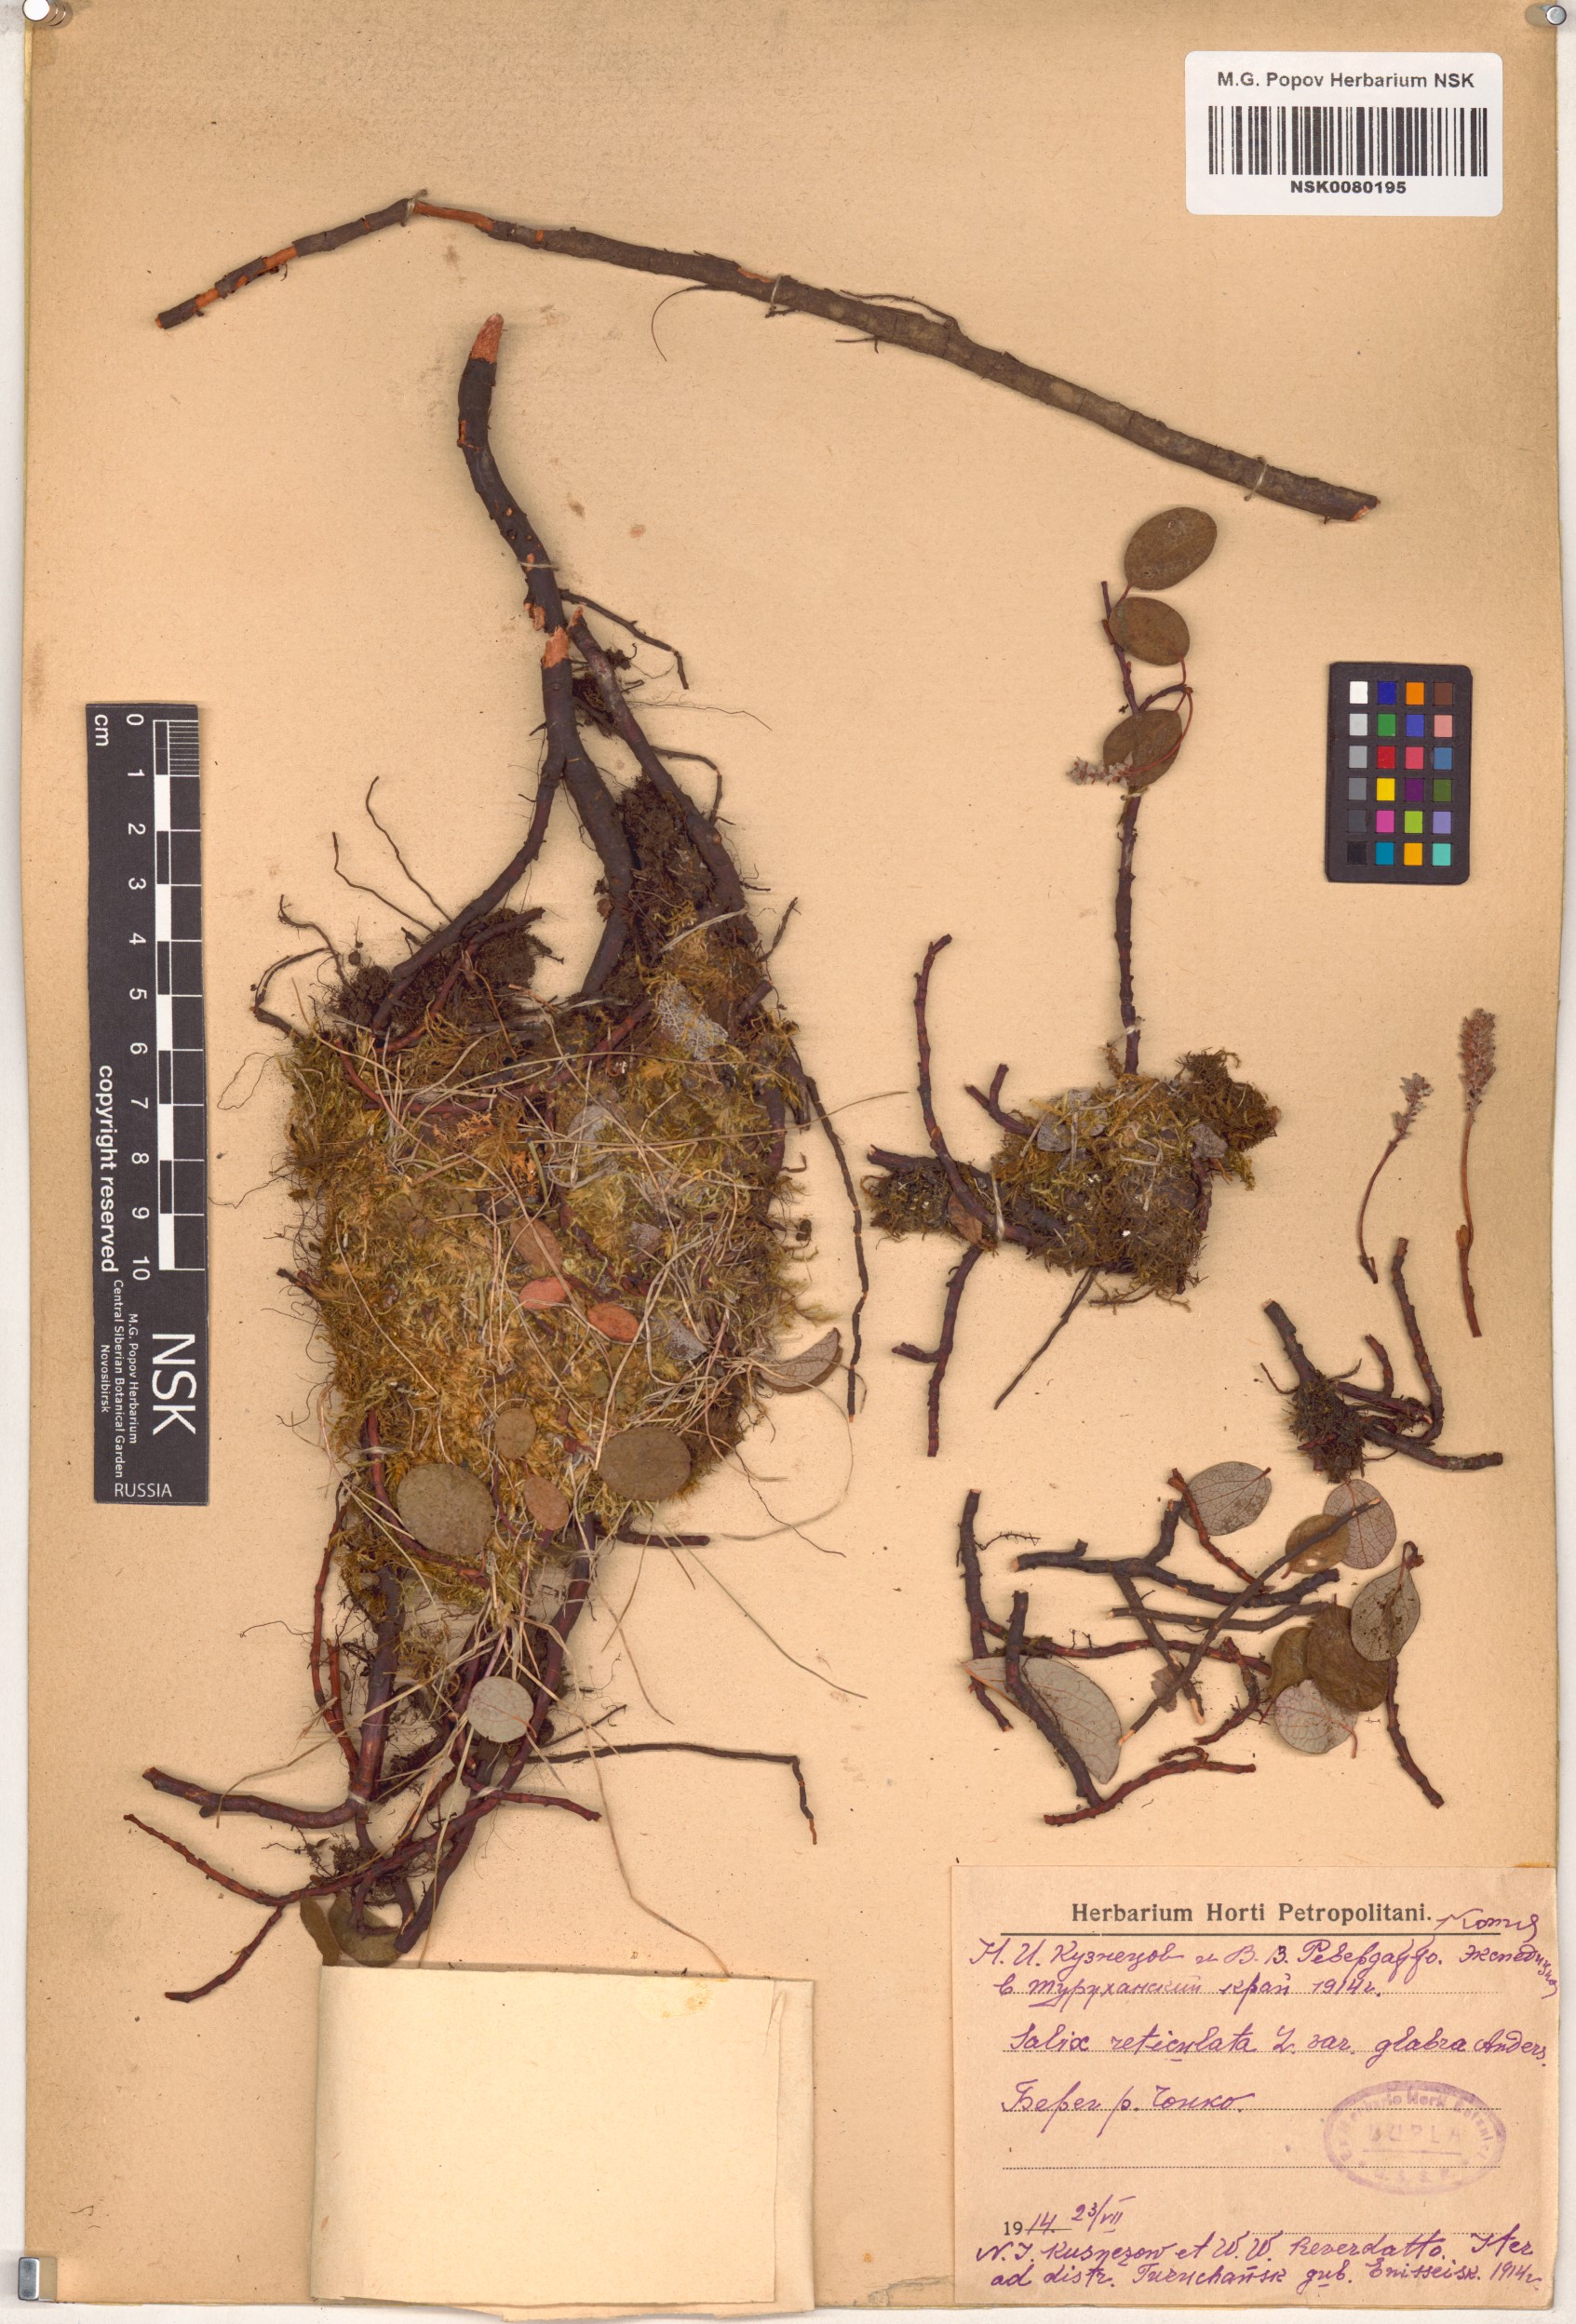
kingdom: Plantae
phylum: Tracheophyta
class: Magnoliopsida
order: Malpighiales
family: Salicaceae
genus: Salix
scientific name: Salix reticulata
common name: Net-leaved willow
